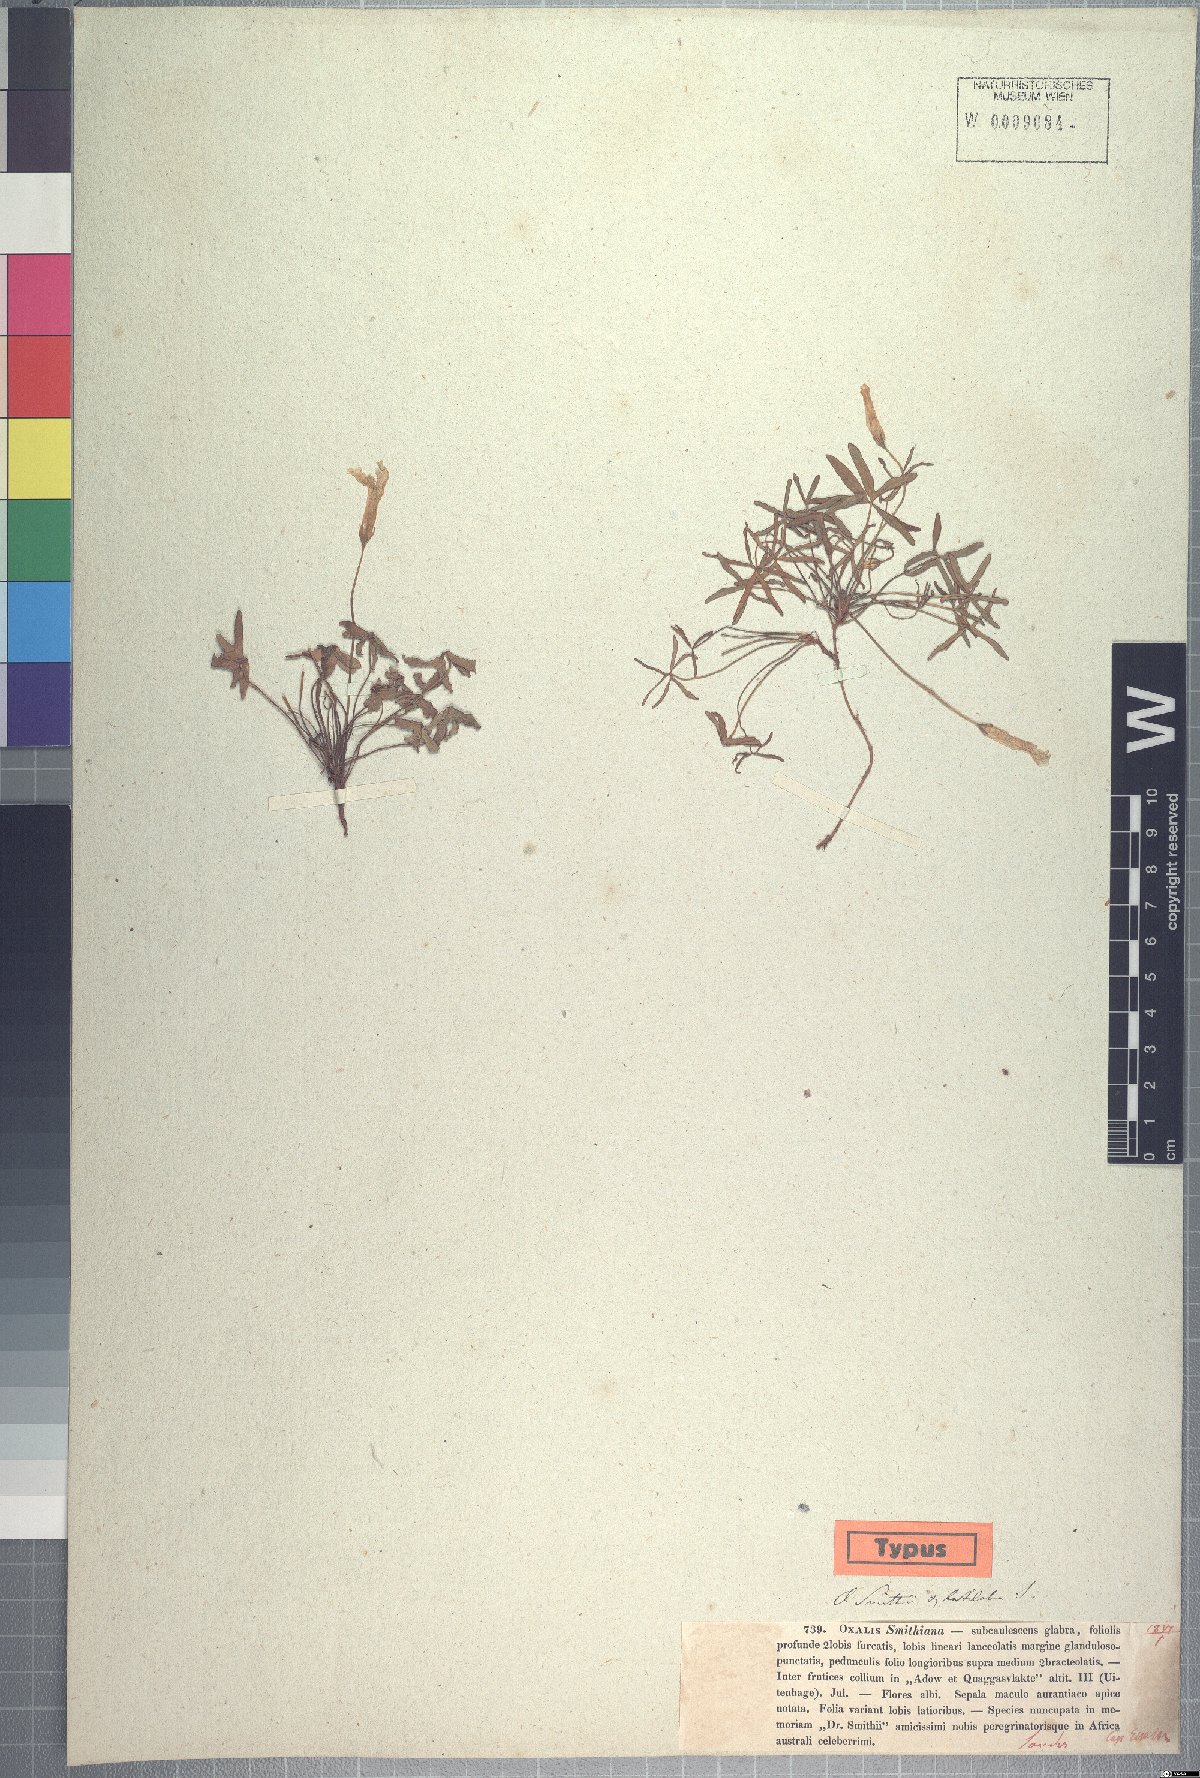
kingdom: Plantae
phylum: Tracheophyta
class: Magnoliopsida
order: Oxalidales
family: Oxalidaceae
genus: Oxalis
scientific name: Oxalis smithiana
